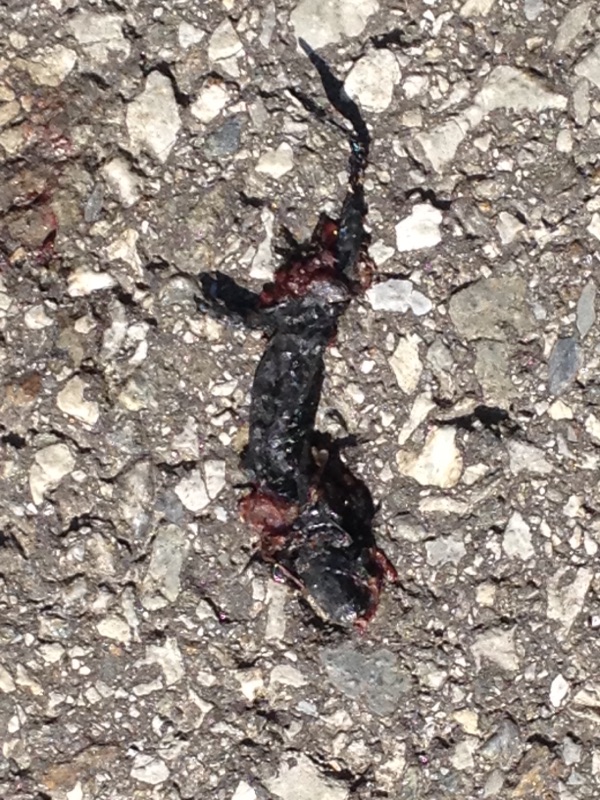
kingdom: Animalia
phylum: Chordata
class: Amphibia
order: Caudata
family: Salamandridae
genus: Salamandra
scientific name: Salamandra atra
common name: Alpine salamander
